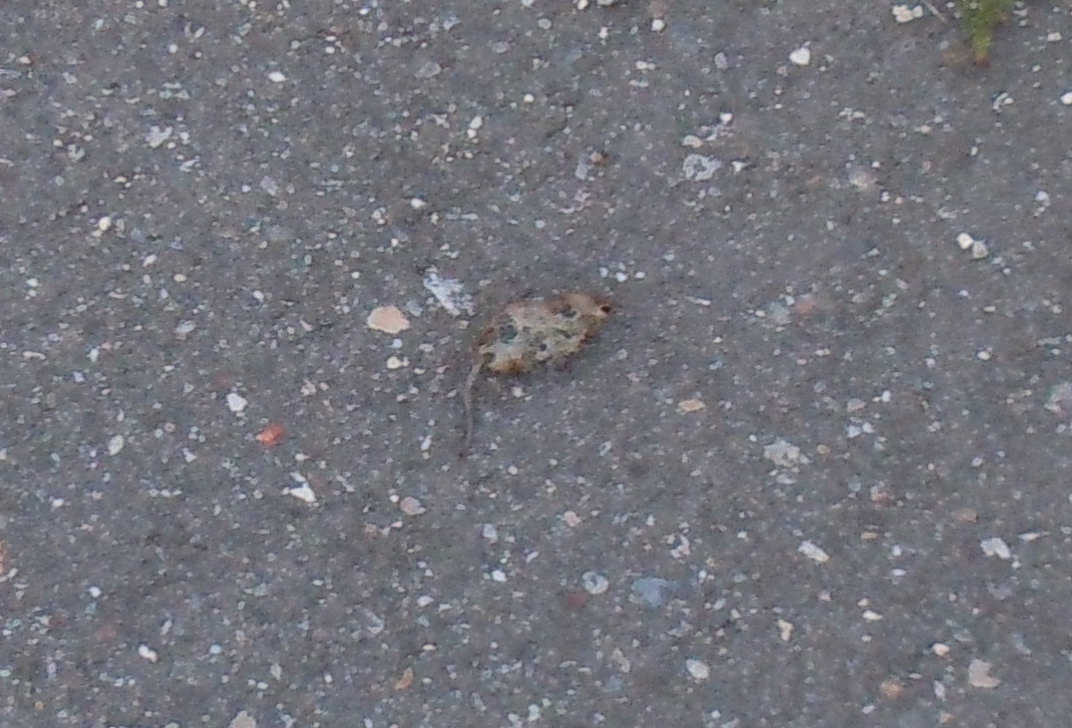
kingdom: Animalia
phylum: Chordata
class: Mammalia
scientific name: Mammalia
